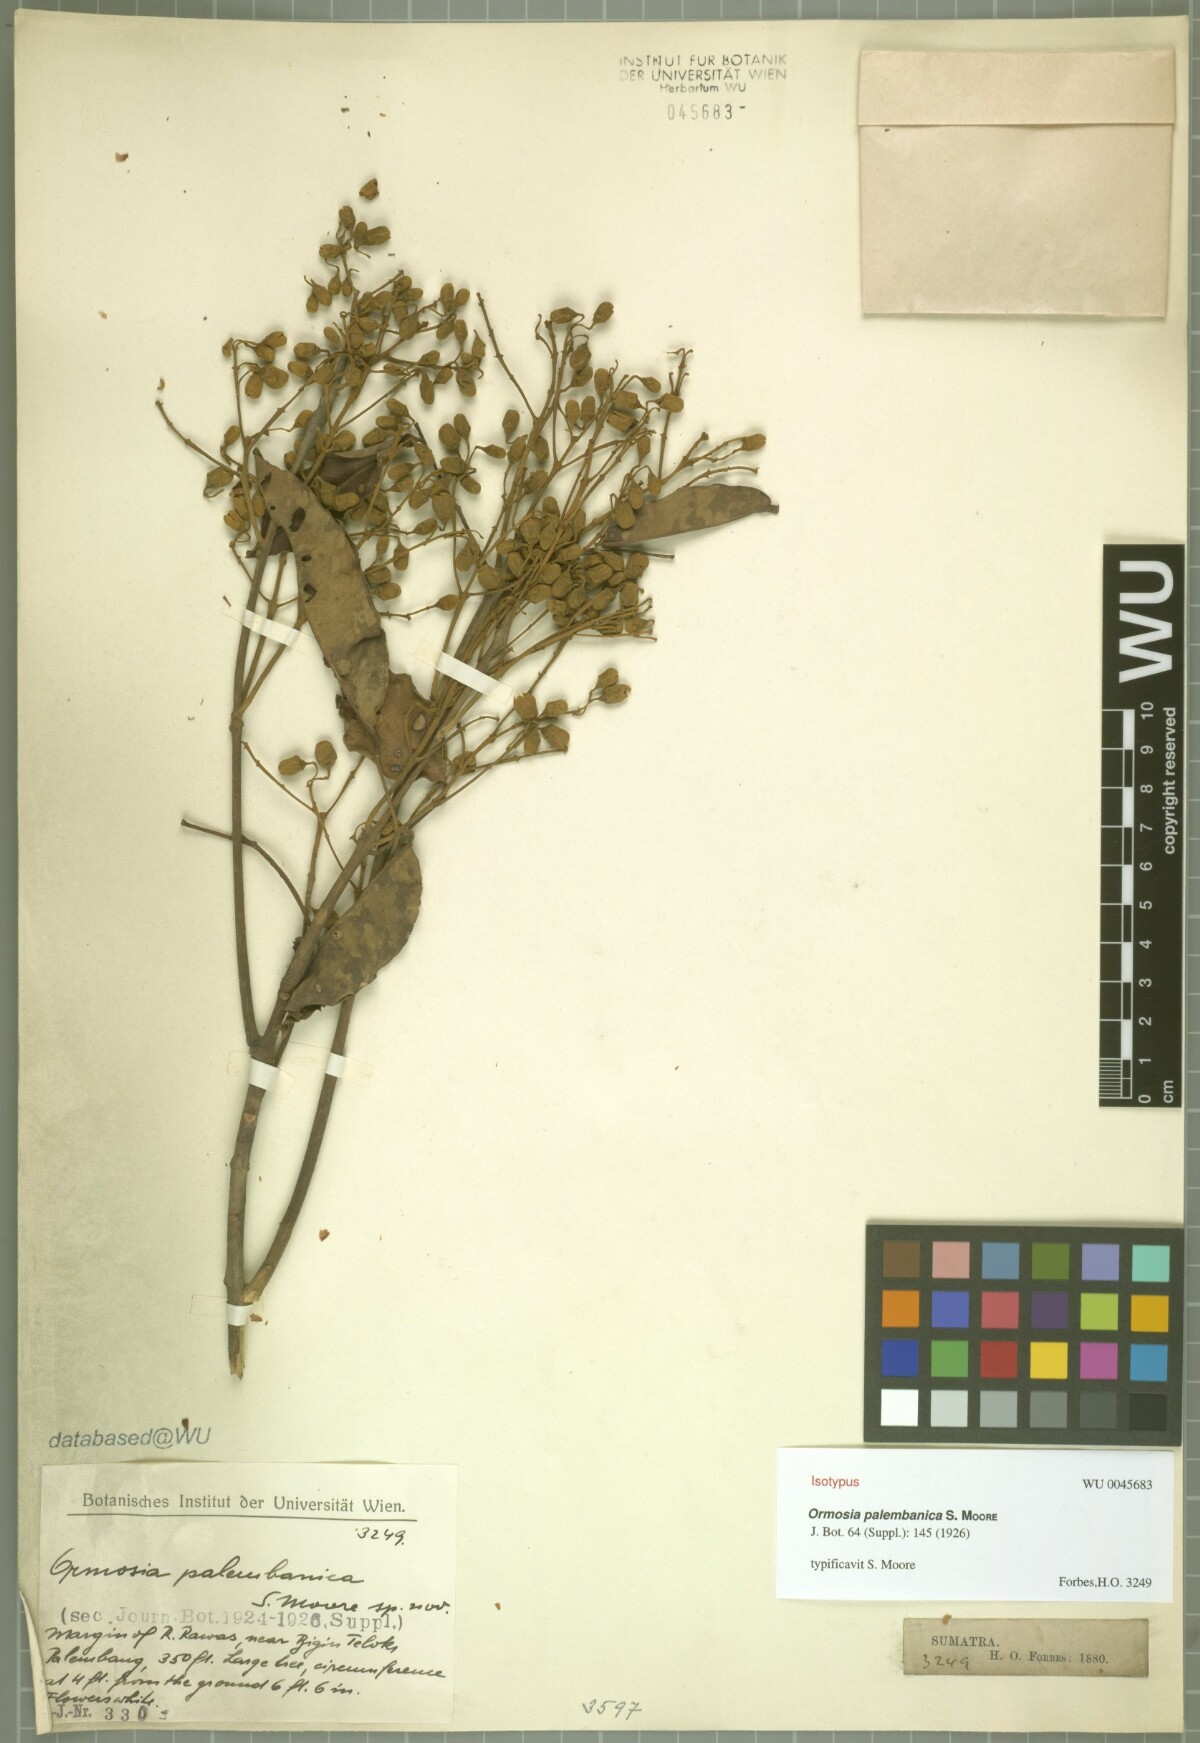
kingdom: Plantae
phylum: Tracheophyta
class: Magnoliopsida
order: Fabales
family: Fabaceae
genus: Ormosia
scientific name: Ormosia macrodisca
